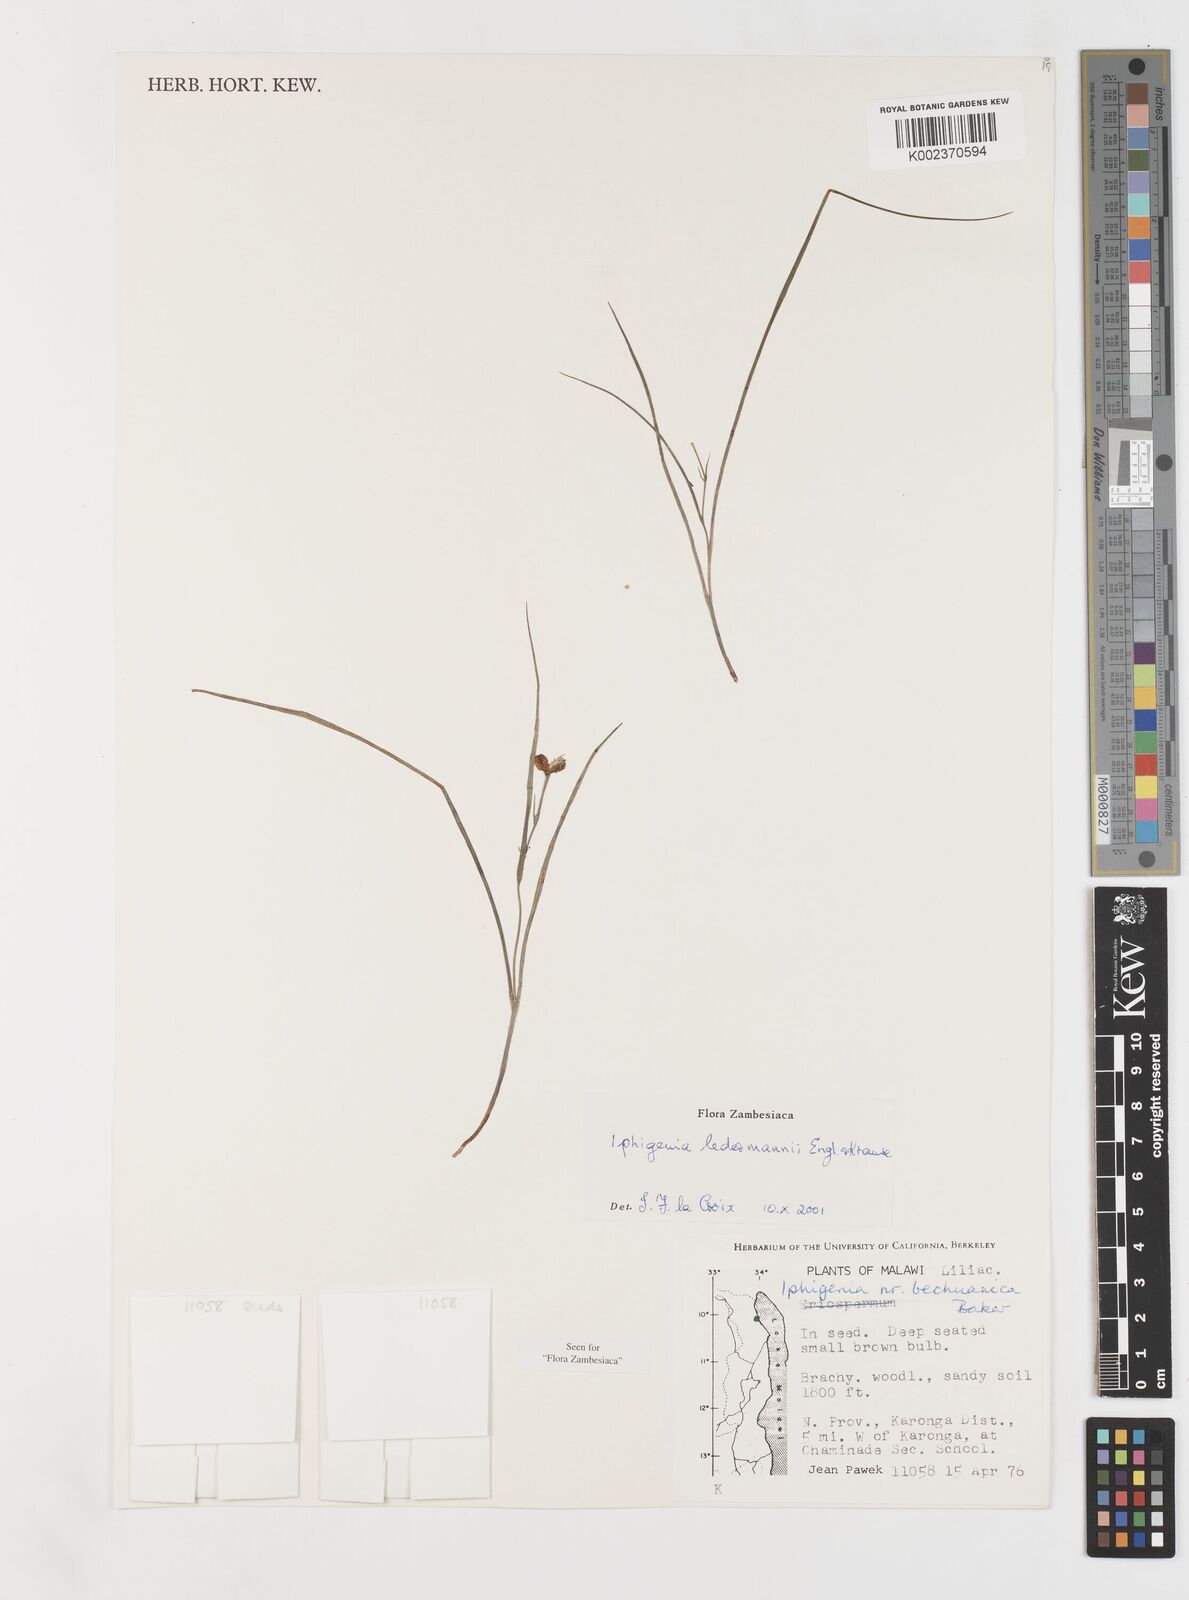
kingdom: Plantae
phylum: Tracheophyta
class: Liliopsida
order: Liliales
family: Colchicaceae
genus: Iphigenia
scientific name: Iphigenia oliveri
